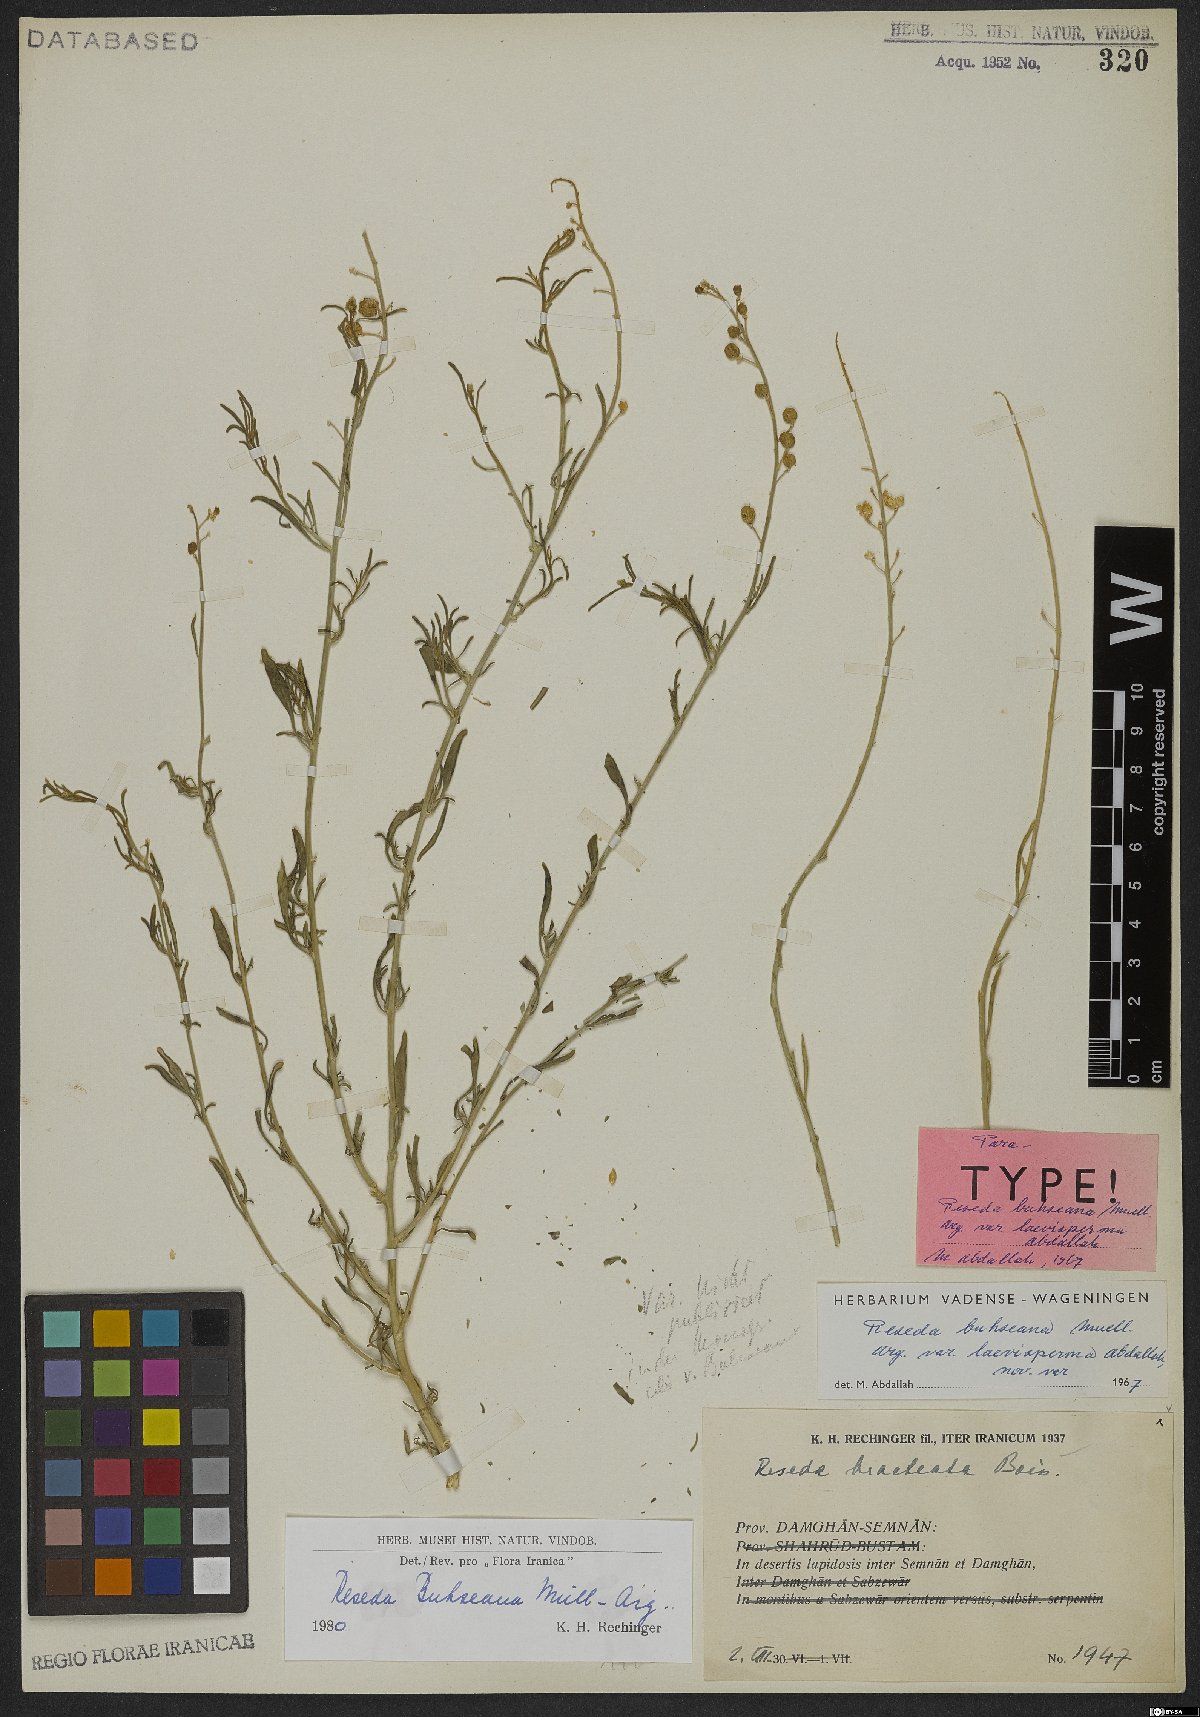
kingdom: Plantae
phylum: Tracheophyta
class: Magnoliopsida
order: Brassicales
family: Resedaceae
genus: Reseda
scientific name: Reseda buhseana
